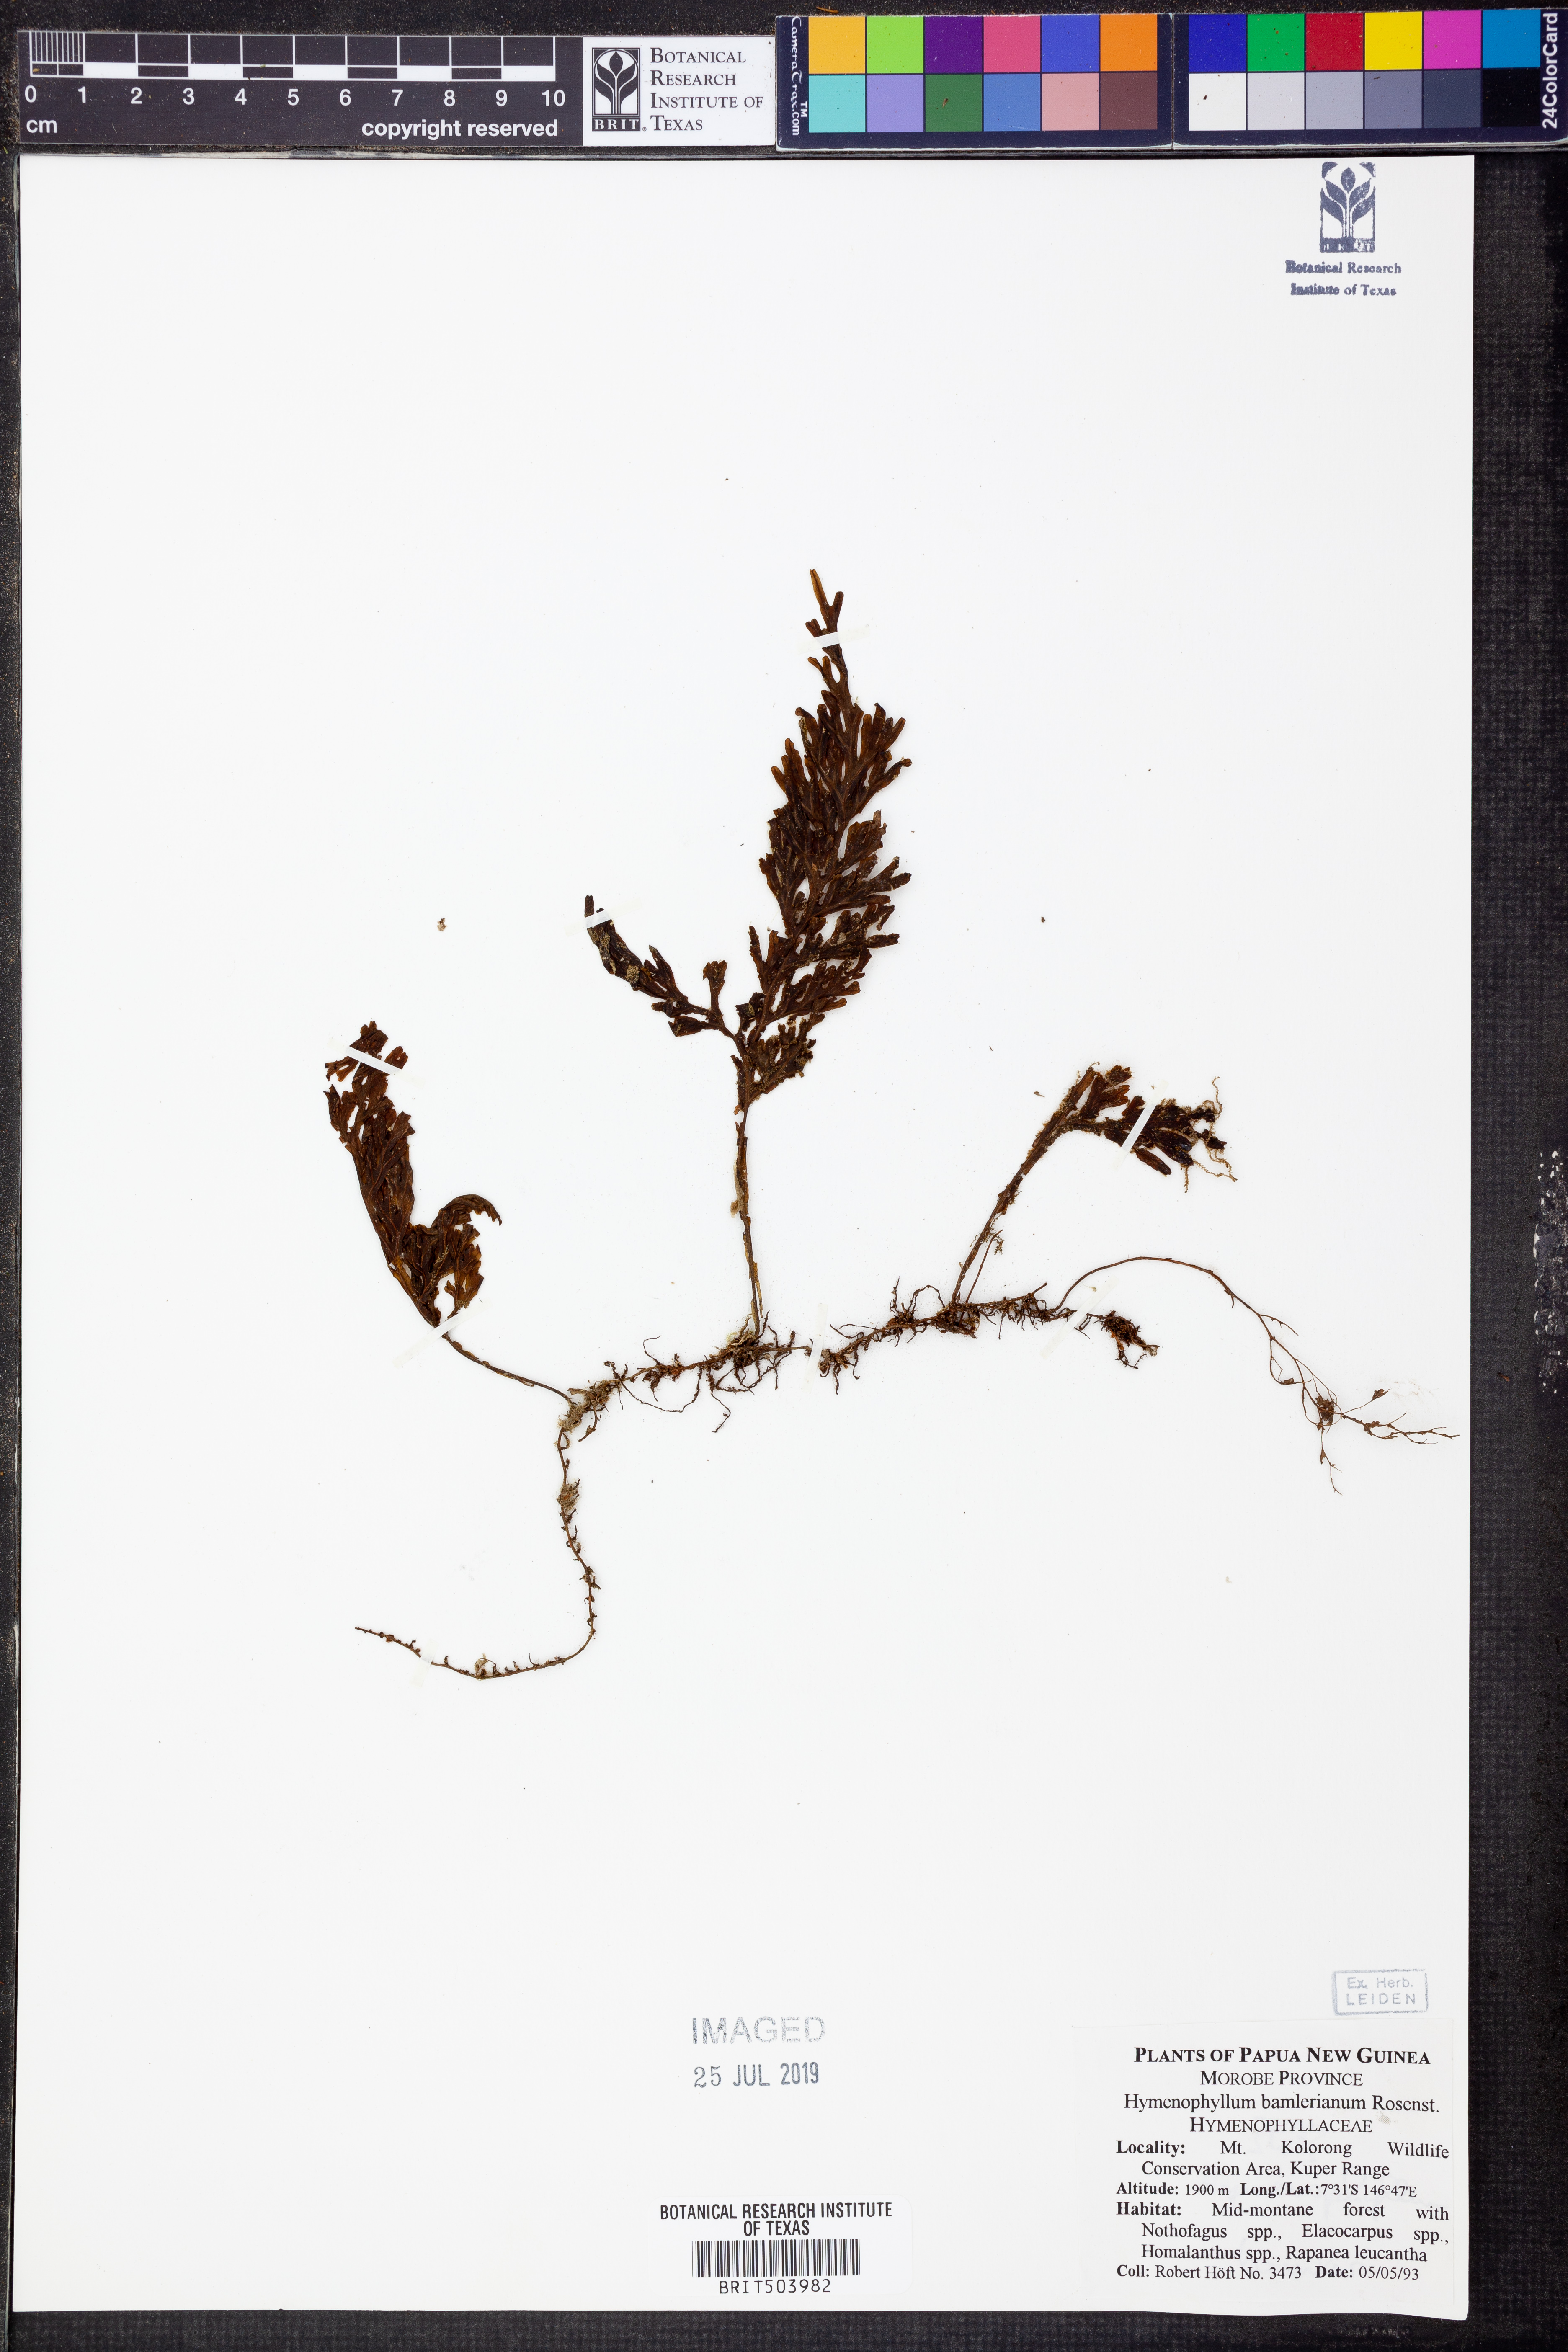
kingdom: Plantae
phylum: Tracheophyta
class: Polypodiopsida
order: Hymenophyllales
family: Hymenophyllaceae
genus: Hymenophyllum
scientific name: Hymenophyllum junghuhnii
